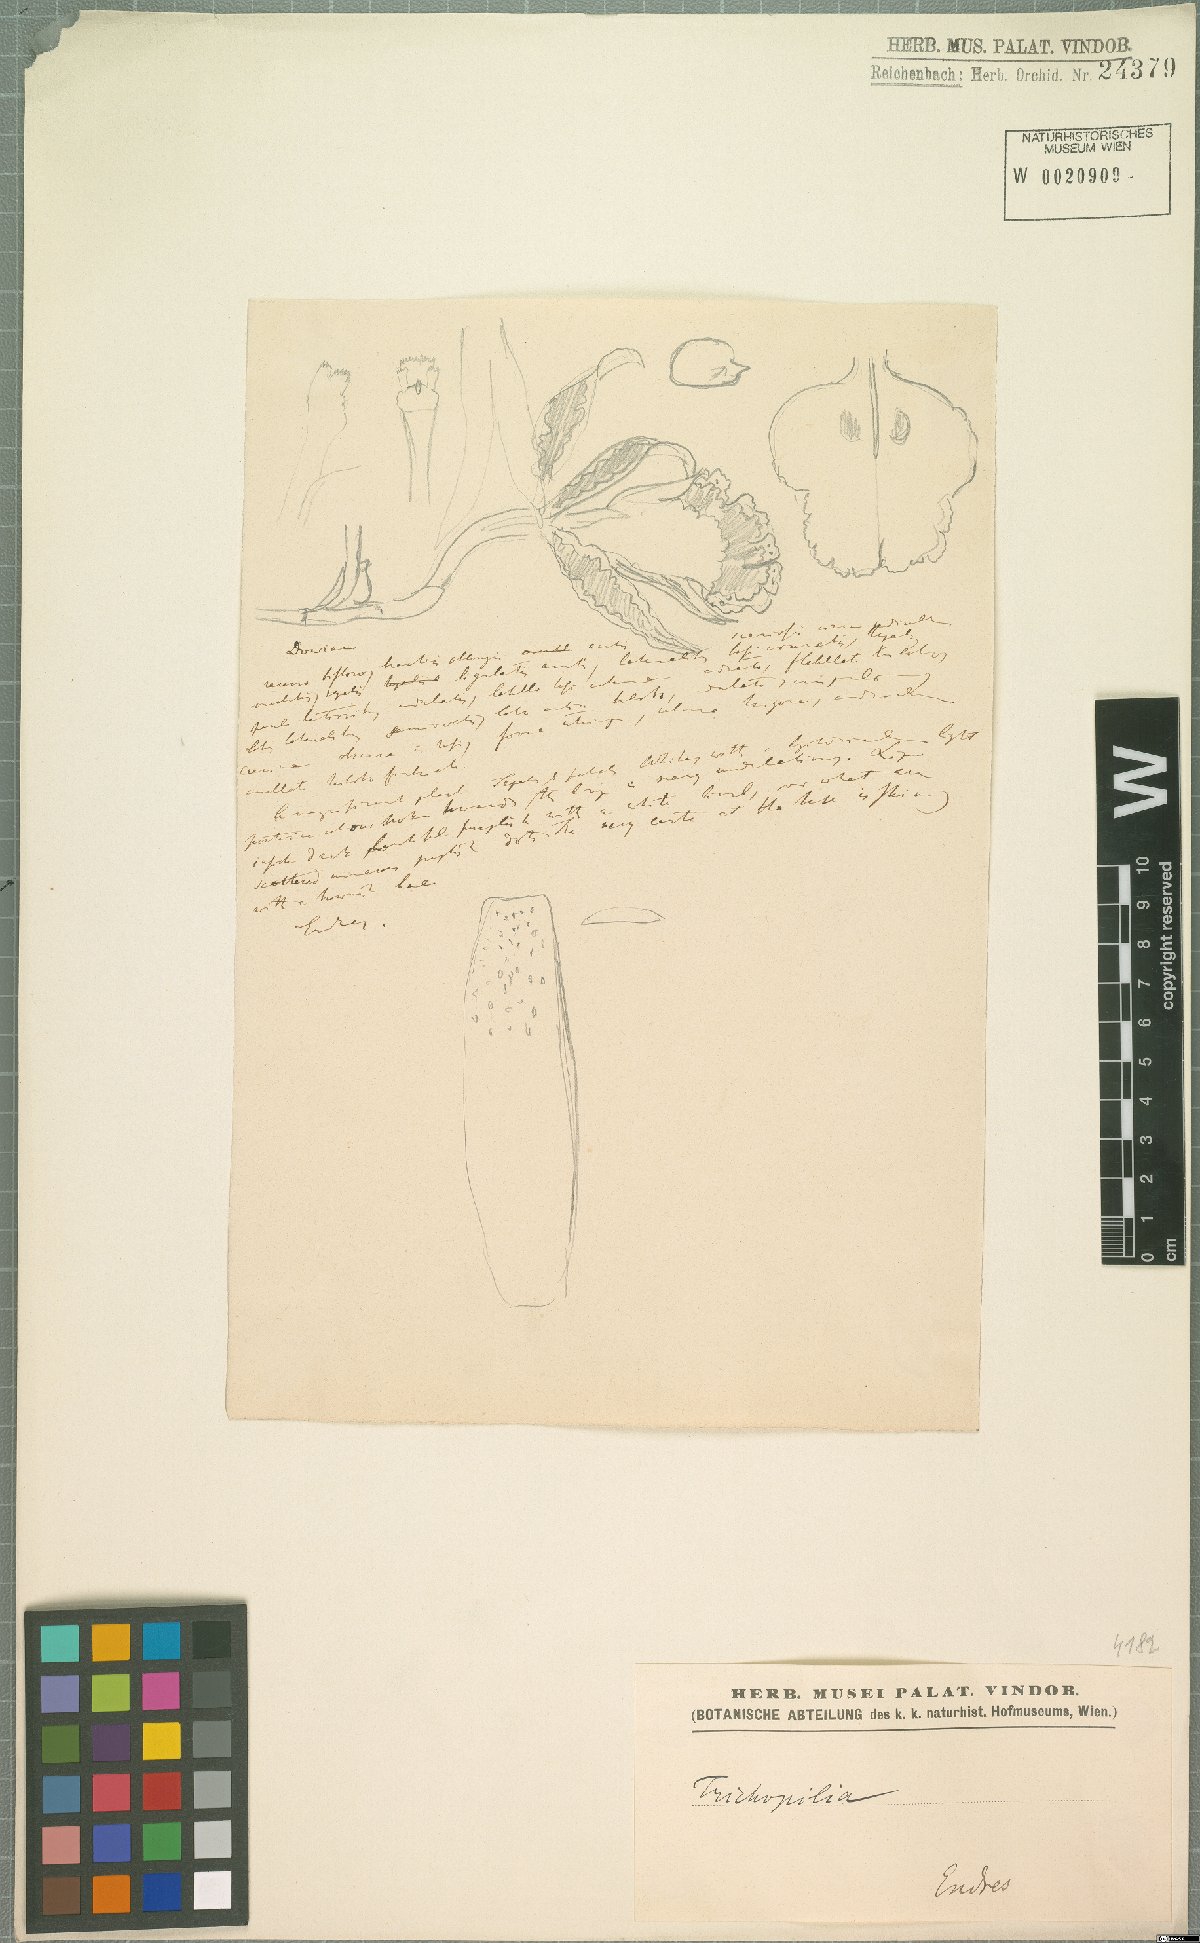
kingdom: Plantae
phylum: Tracheophyta
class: Liliopsida
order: Asparagales
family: Orchidaceae
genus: Trichopilia
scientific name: Trichopilia
